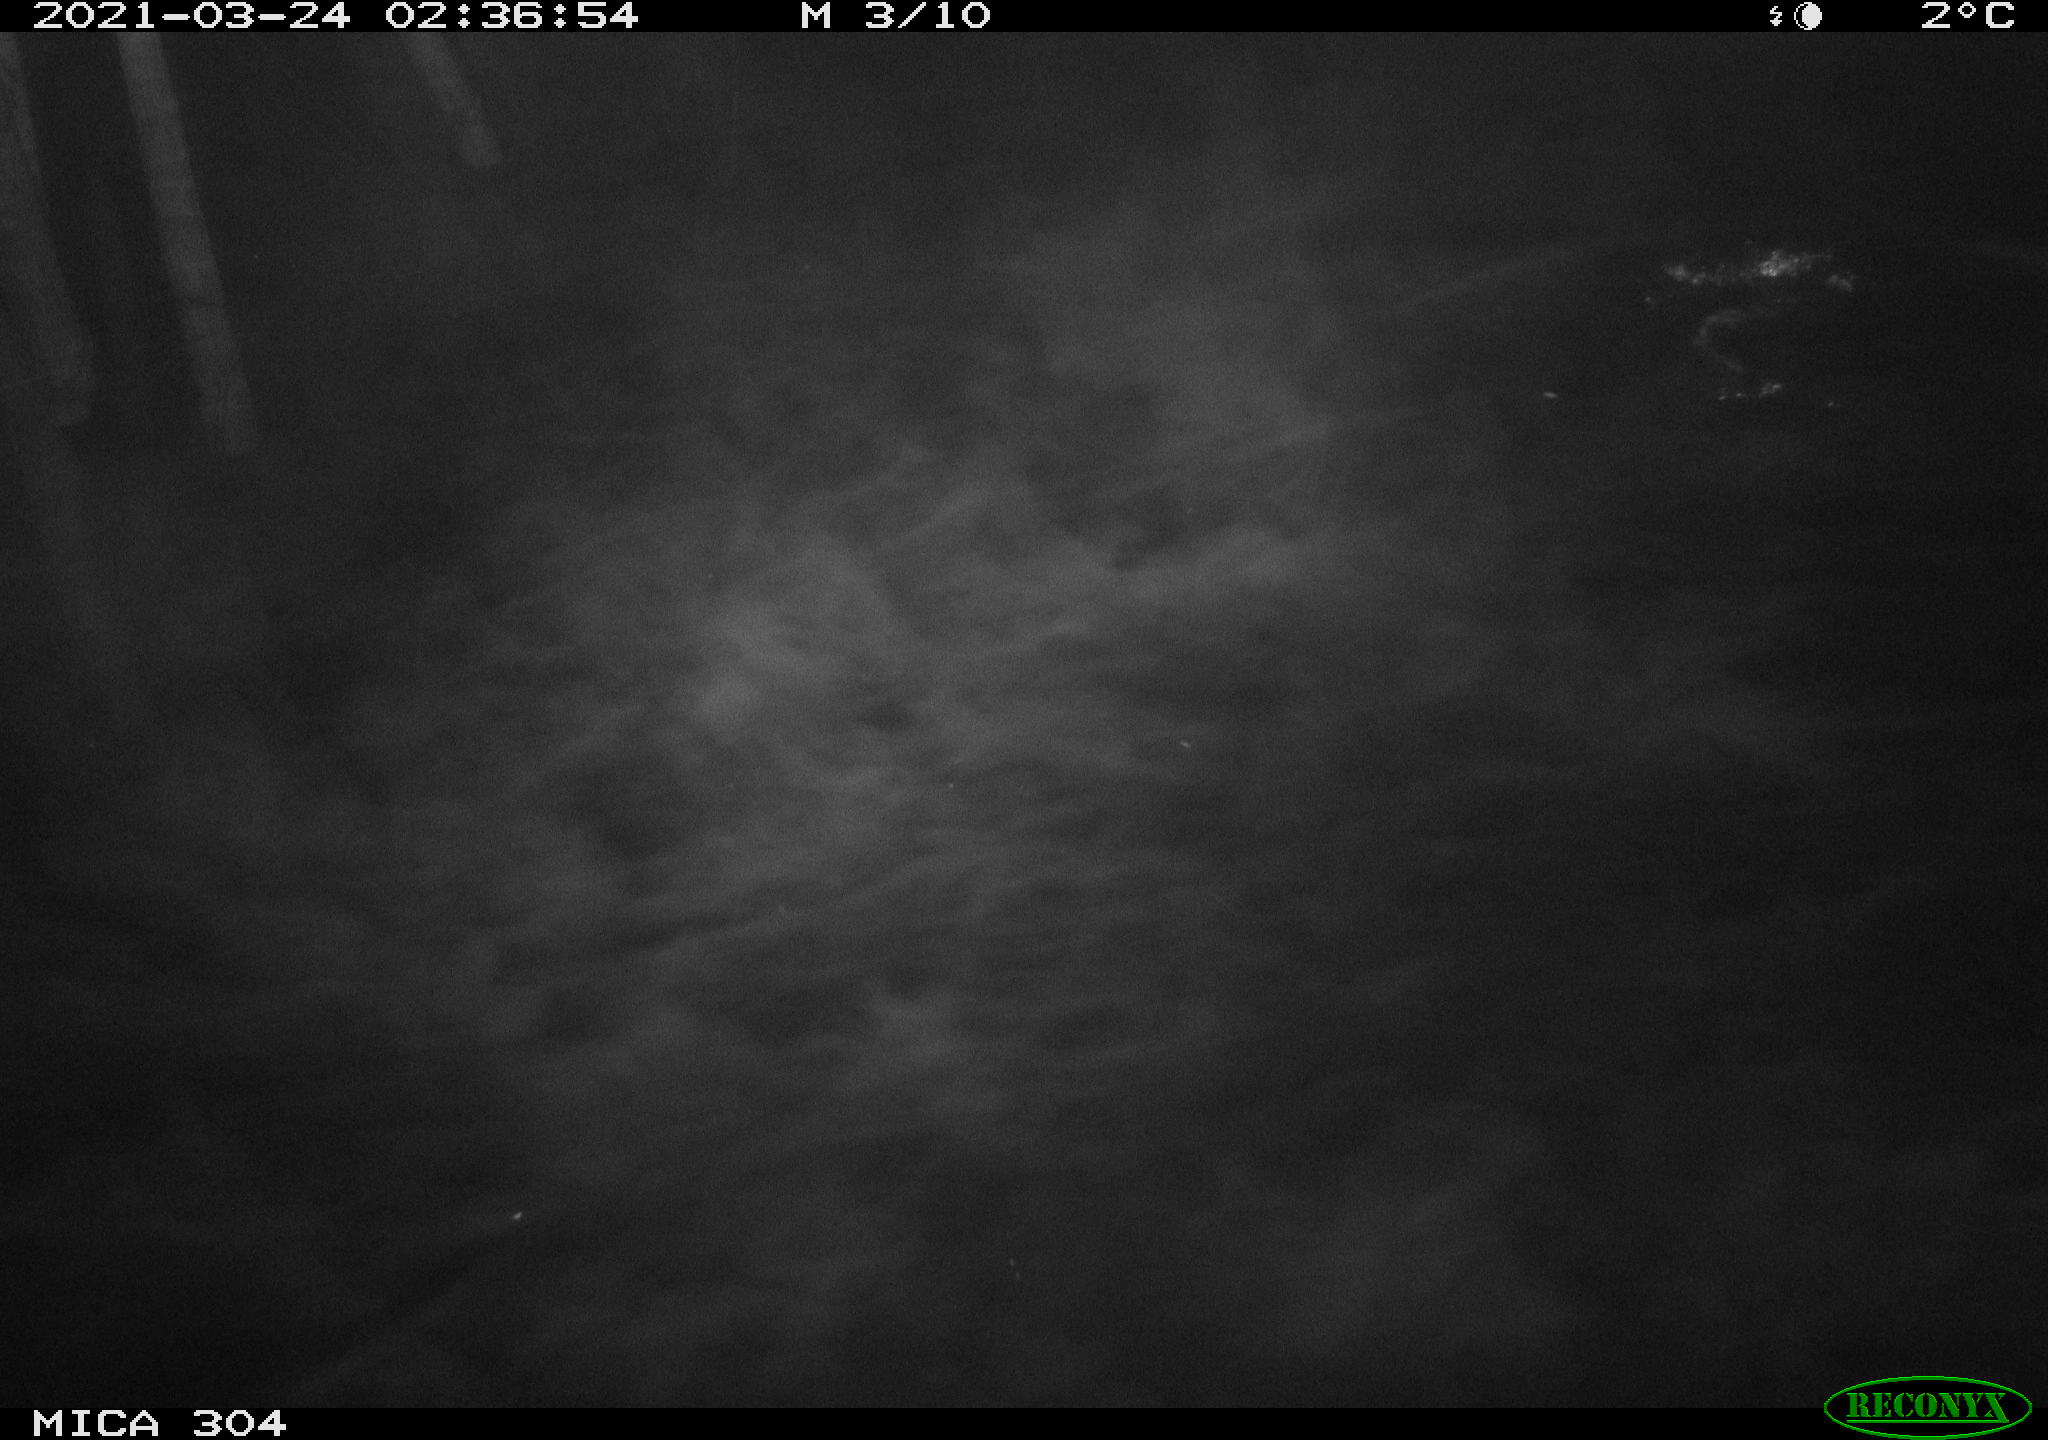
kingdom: Animalia
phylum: Chordata
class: Mammalia
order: Rodentia
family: Cricetidae
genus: Ondatra
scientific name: Ondatra zibethicus
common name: Muskrat
